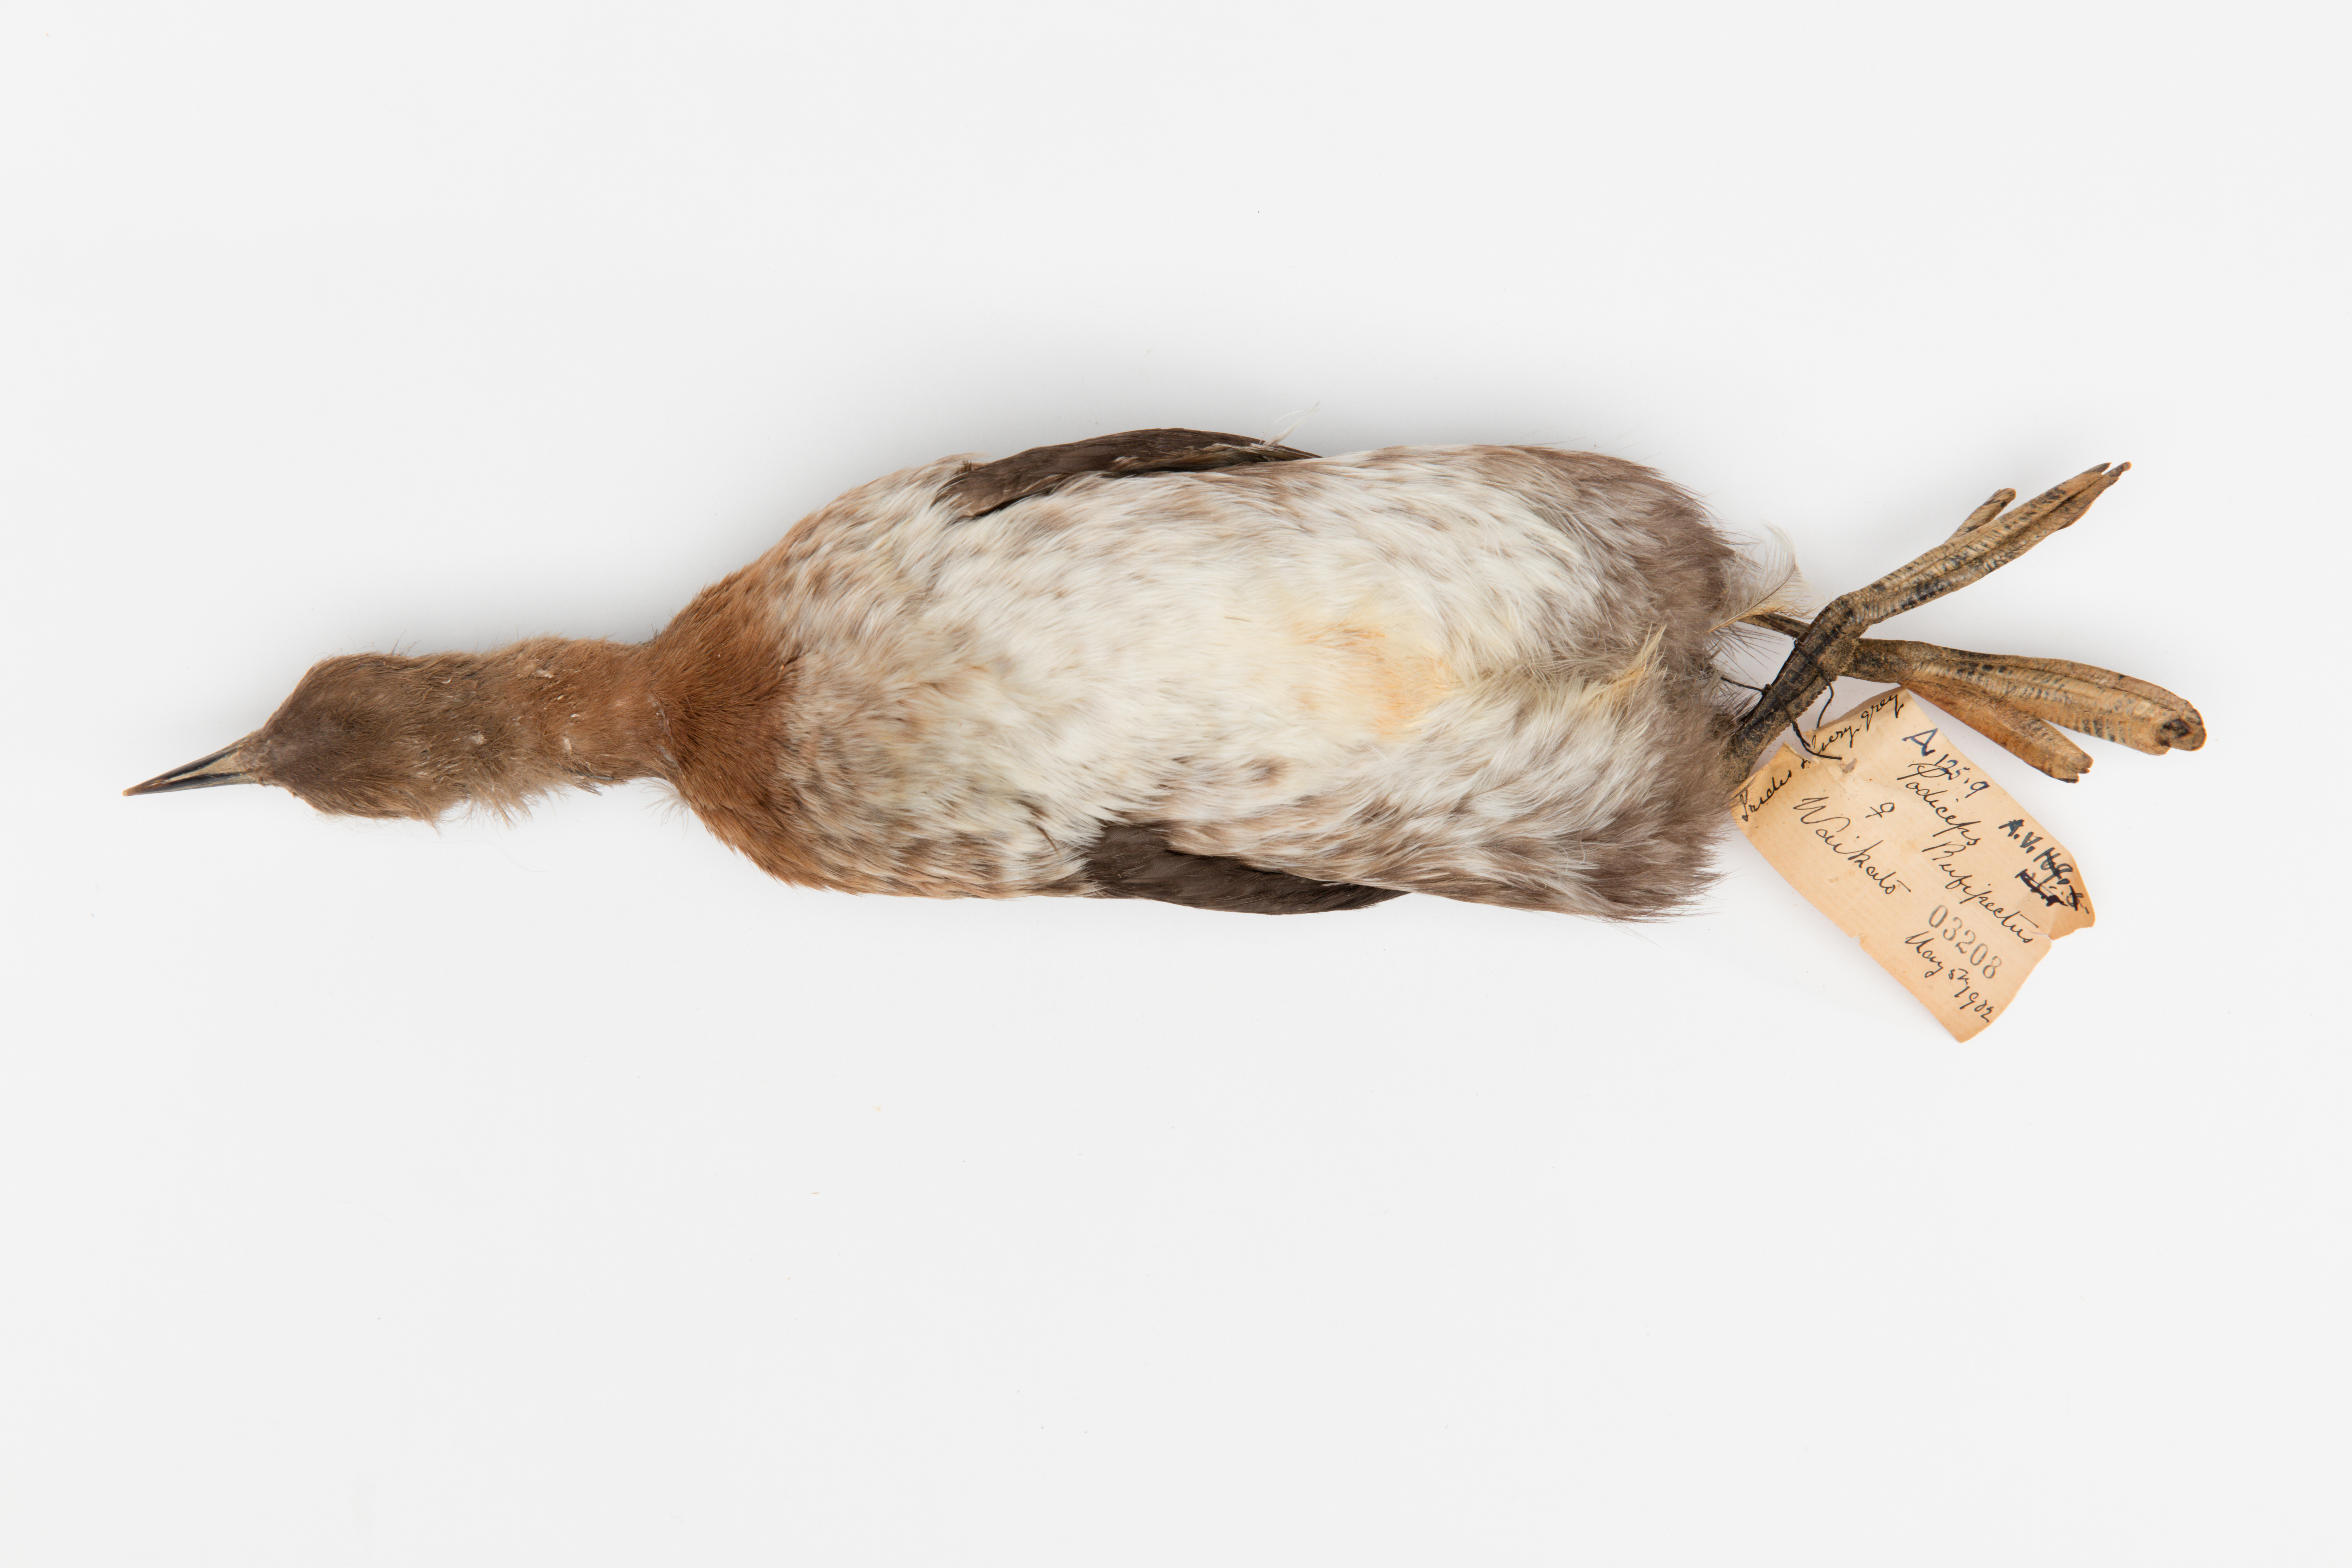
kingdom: Animalia
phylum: Chordata
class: Aves
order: Podicipediformes
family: Podicipedidae
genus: Poliocephalus
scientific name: Poliocephalus rufopectus
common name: New zealand grebe
